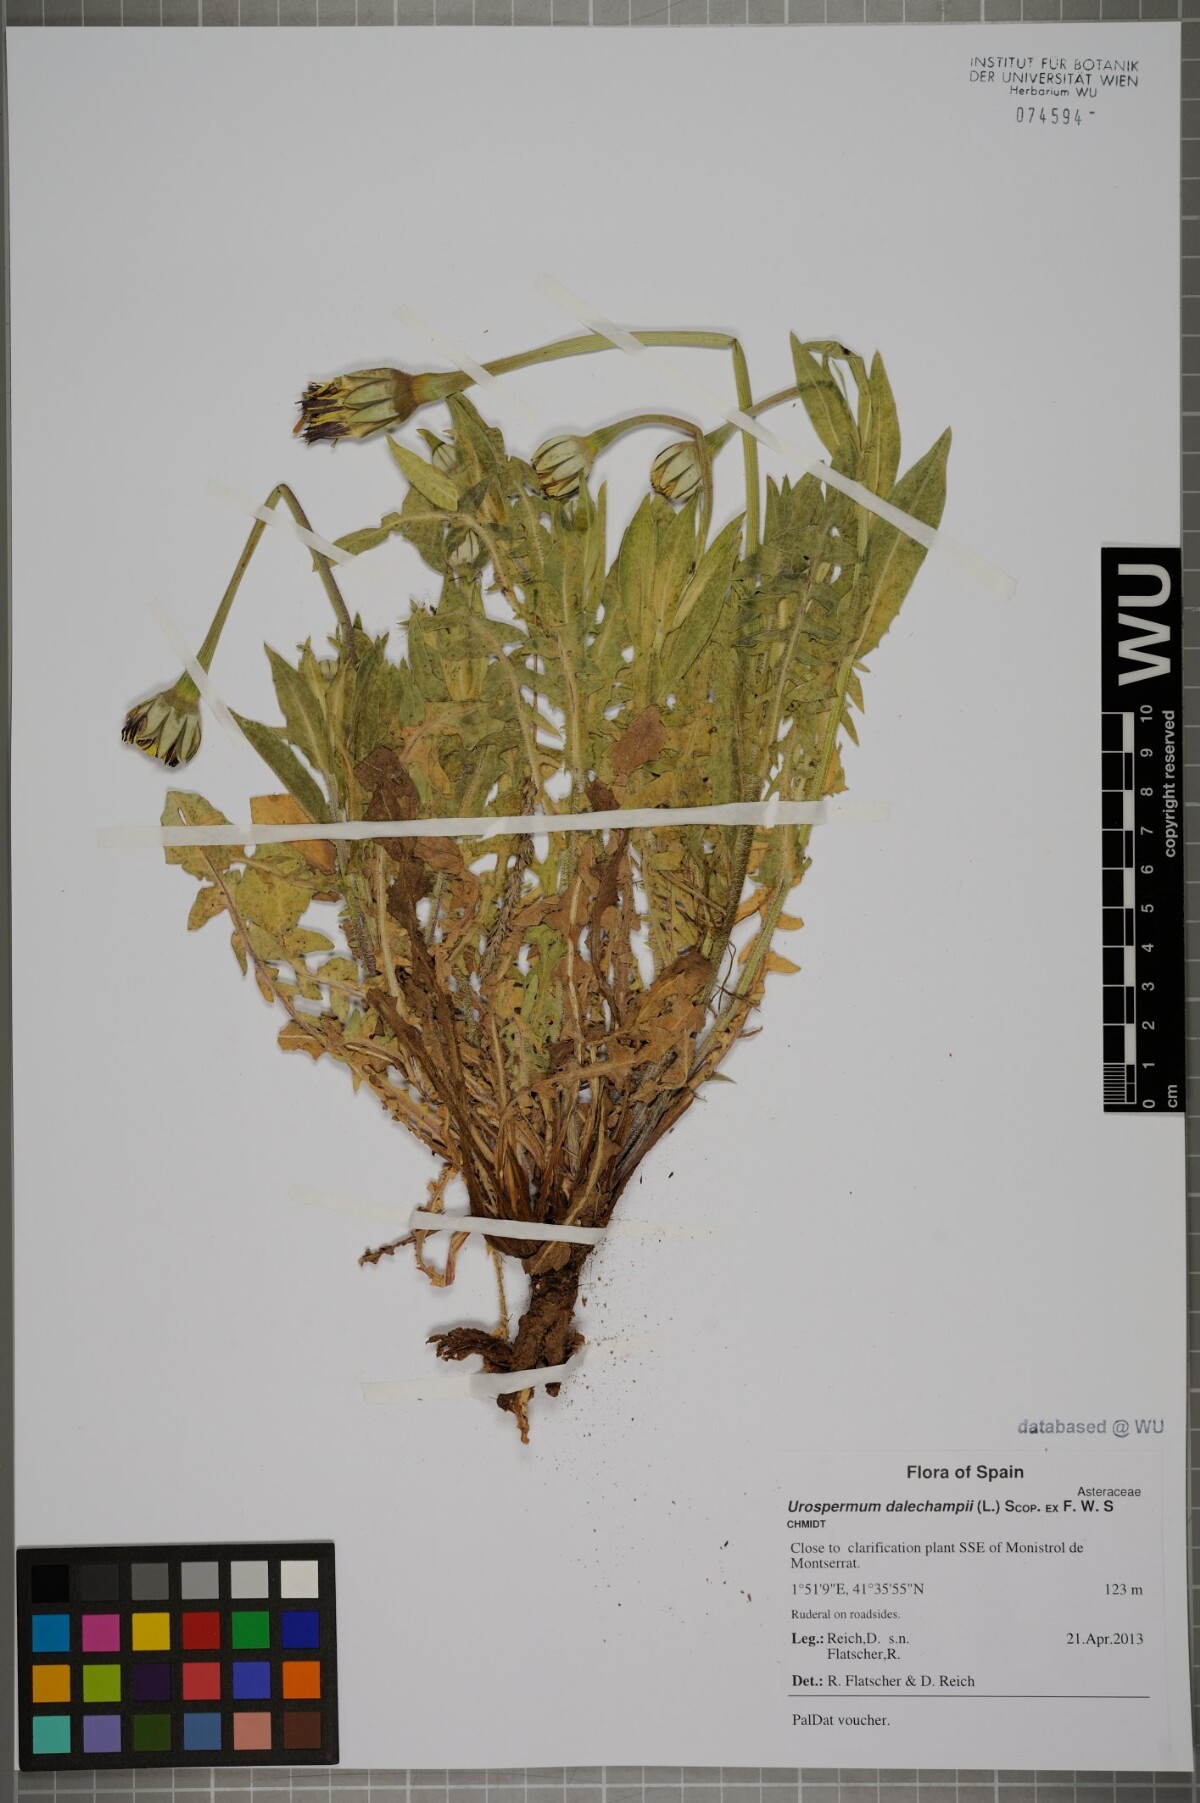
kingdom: Plantae
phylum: Tracheophyta
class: Magnoliopsida
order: Asterales
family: Asteraceae
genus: Urospermum
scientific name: Urospermum dalechampii
